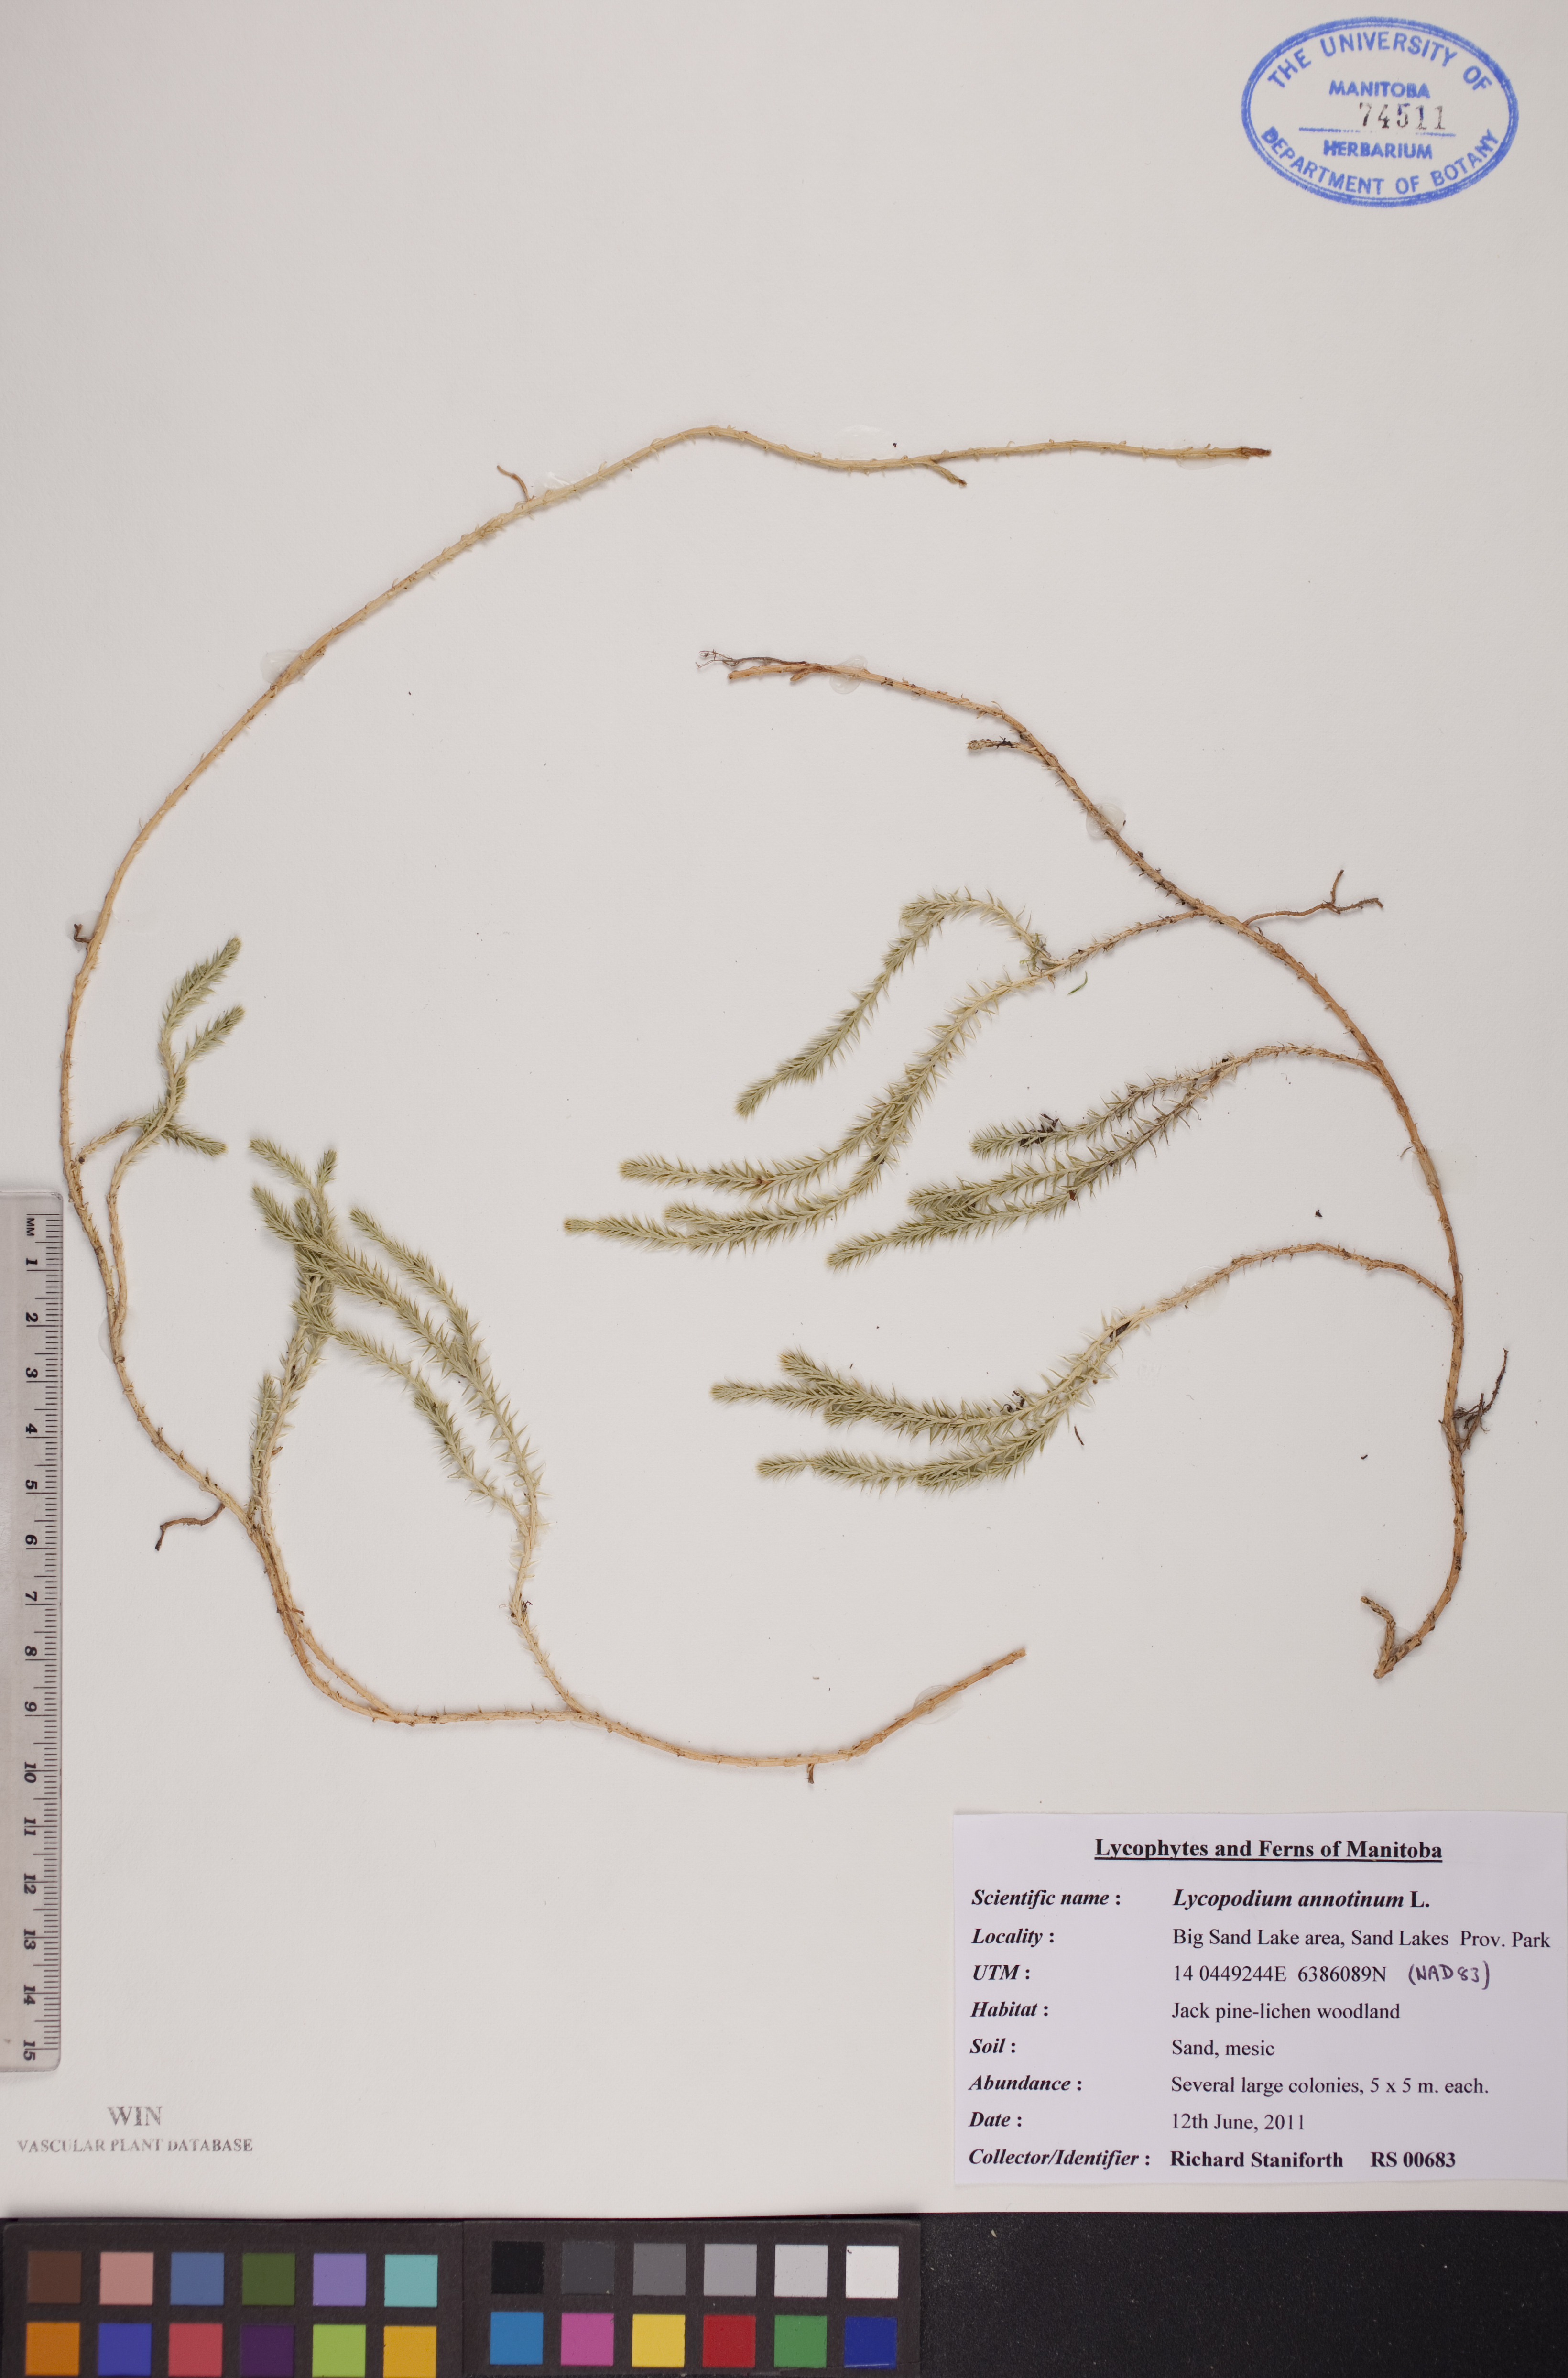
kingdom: Plantae
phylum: Tracheophyta
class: Lycopodiopsida
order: Lycopodiales
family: Lycopodiaceae
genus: Spinulum
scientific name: Spinulum annotinum
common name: Interrupted club-moss
